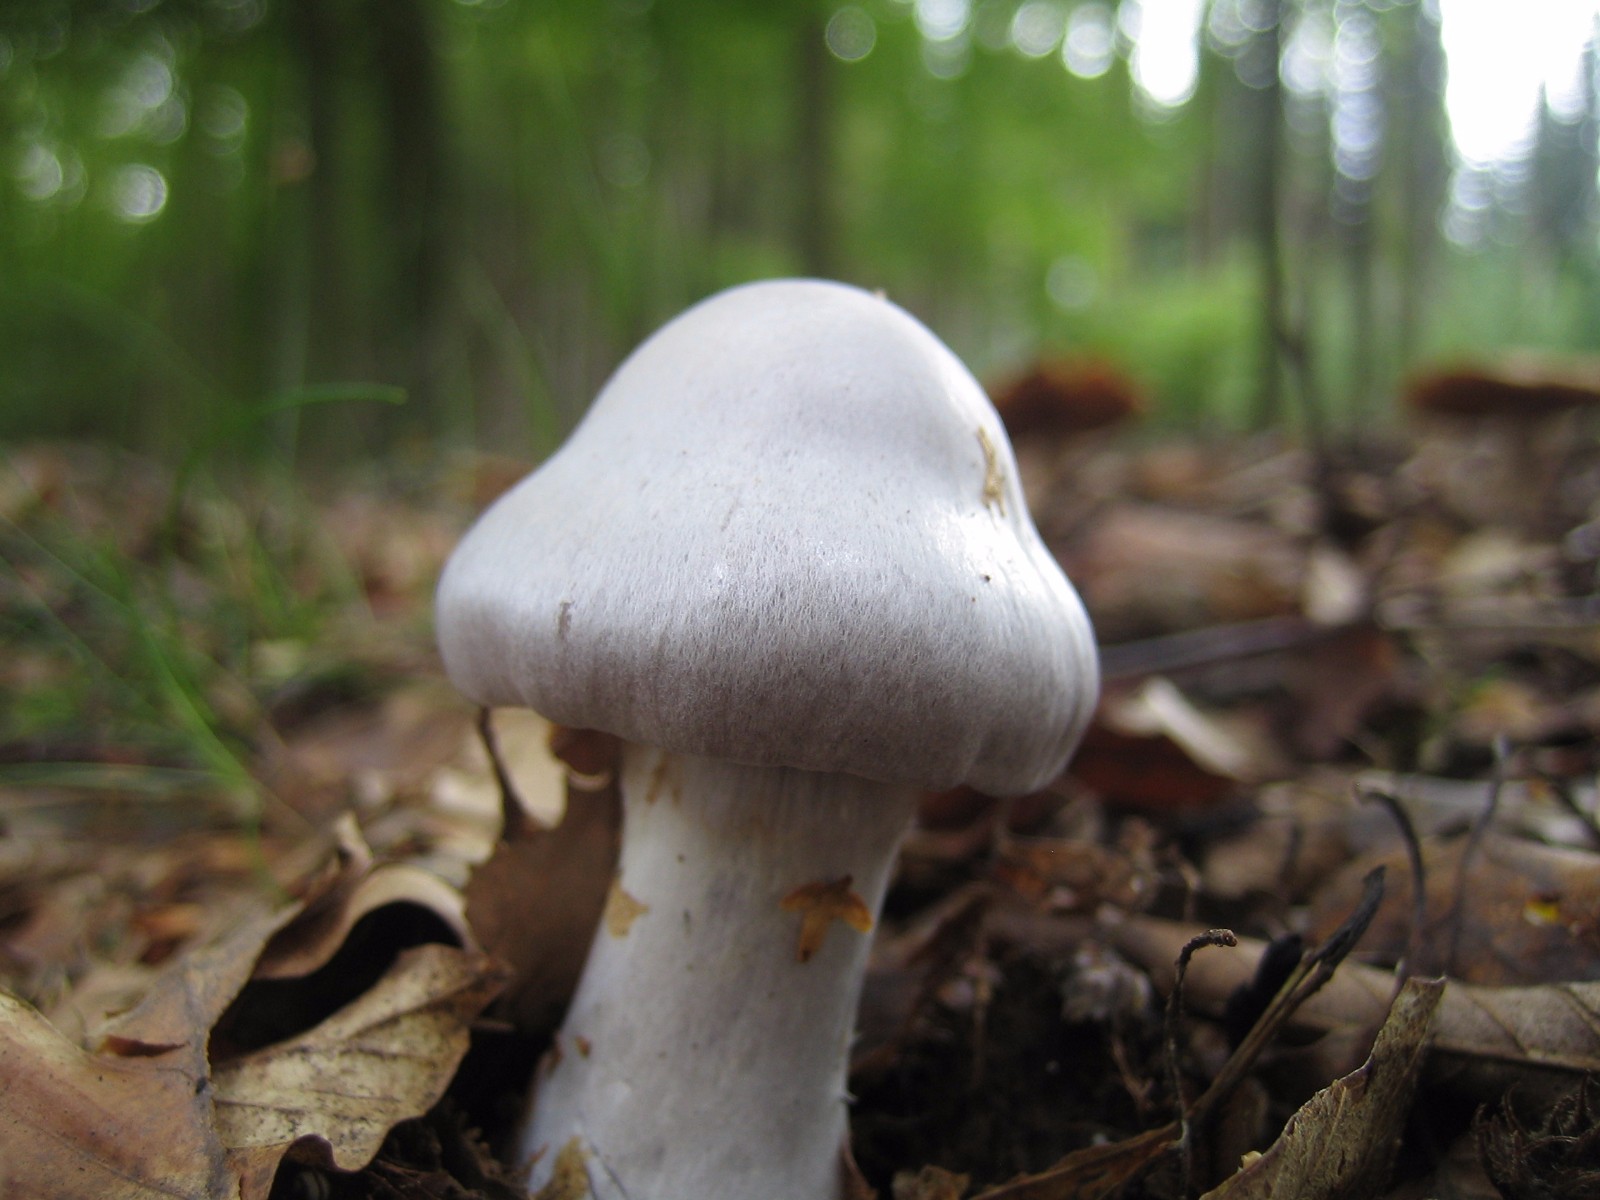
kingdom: Fungi
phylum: Basidiomycota
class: Agaricomycetes
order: Agaricales
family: Cortinariaceae
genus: Cortinarius
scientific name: Cortinarius alboviolaceus
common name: lysviolet slørhat
